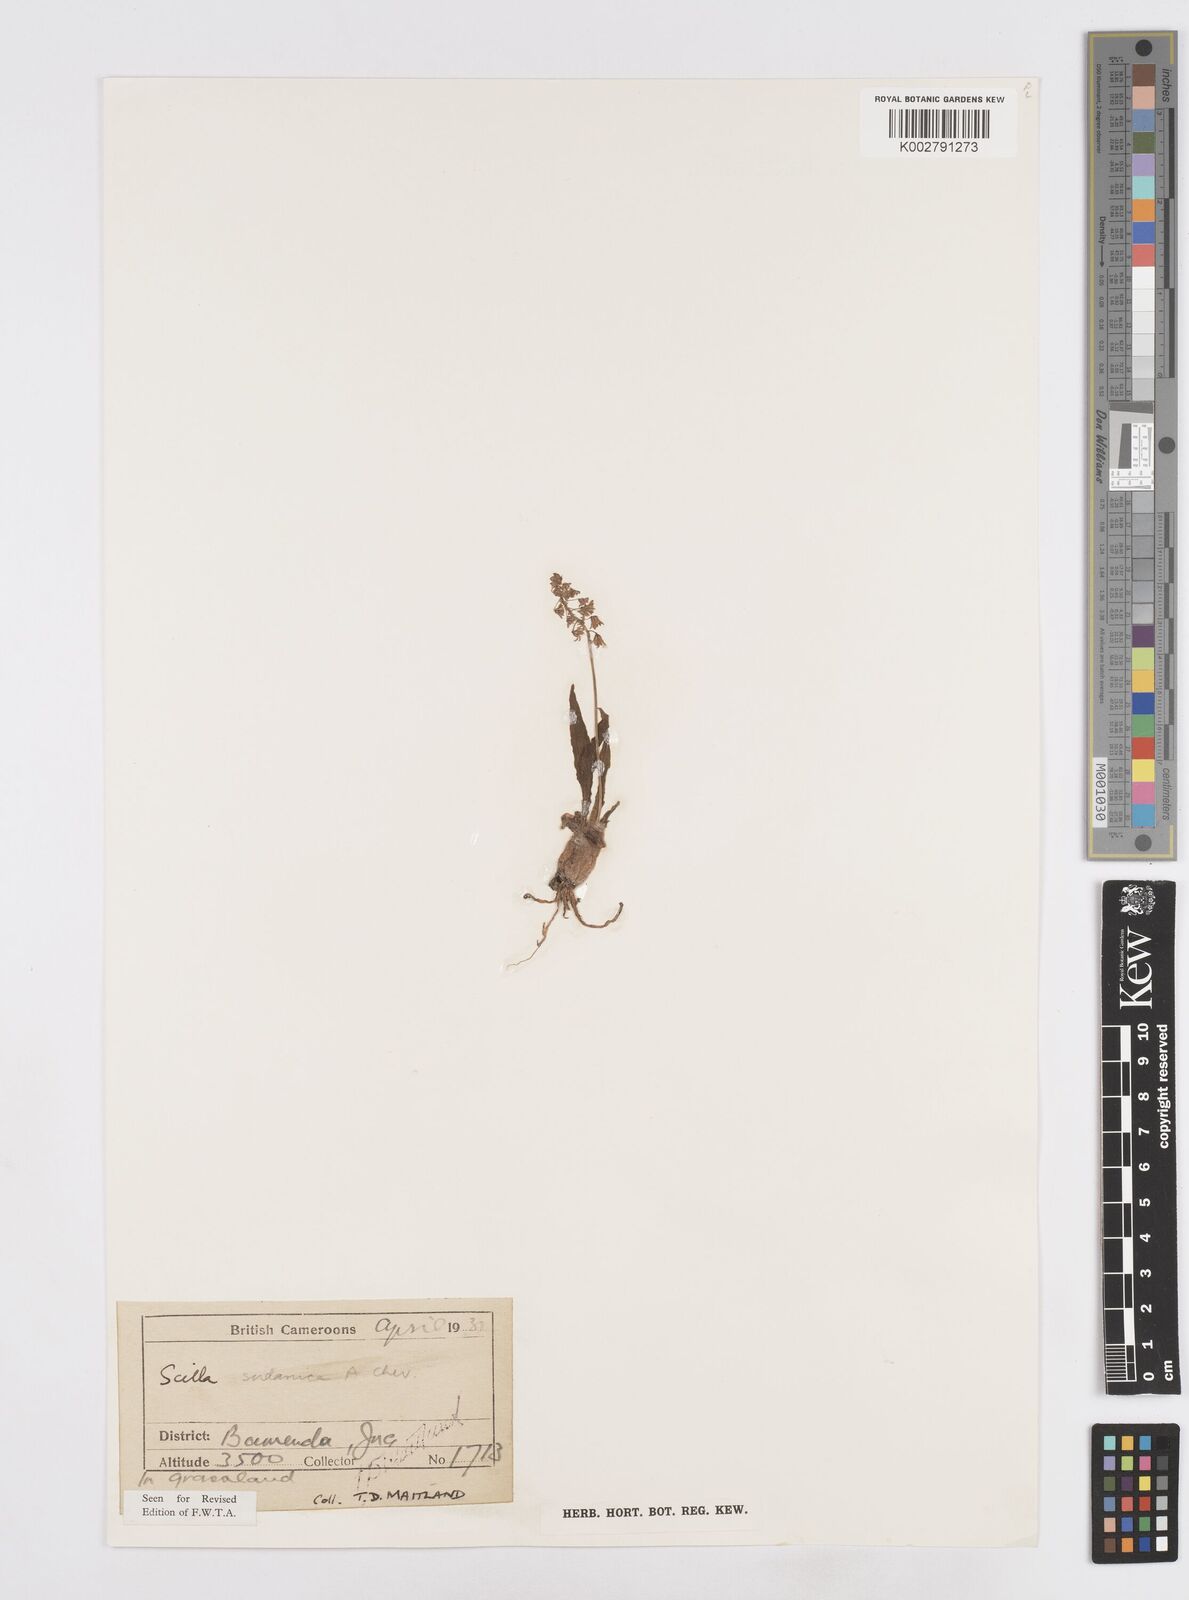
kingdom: Plantae
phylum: Tracheophyta
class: Liliopsida
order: Asparagales
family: Asparagaceae
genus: Ledebouria
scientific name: Ledebouria sudanica
